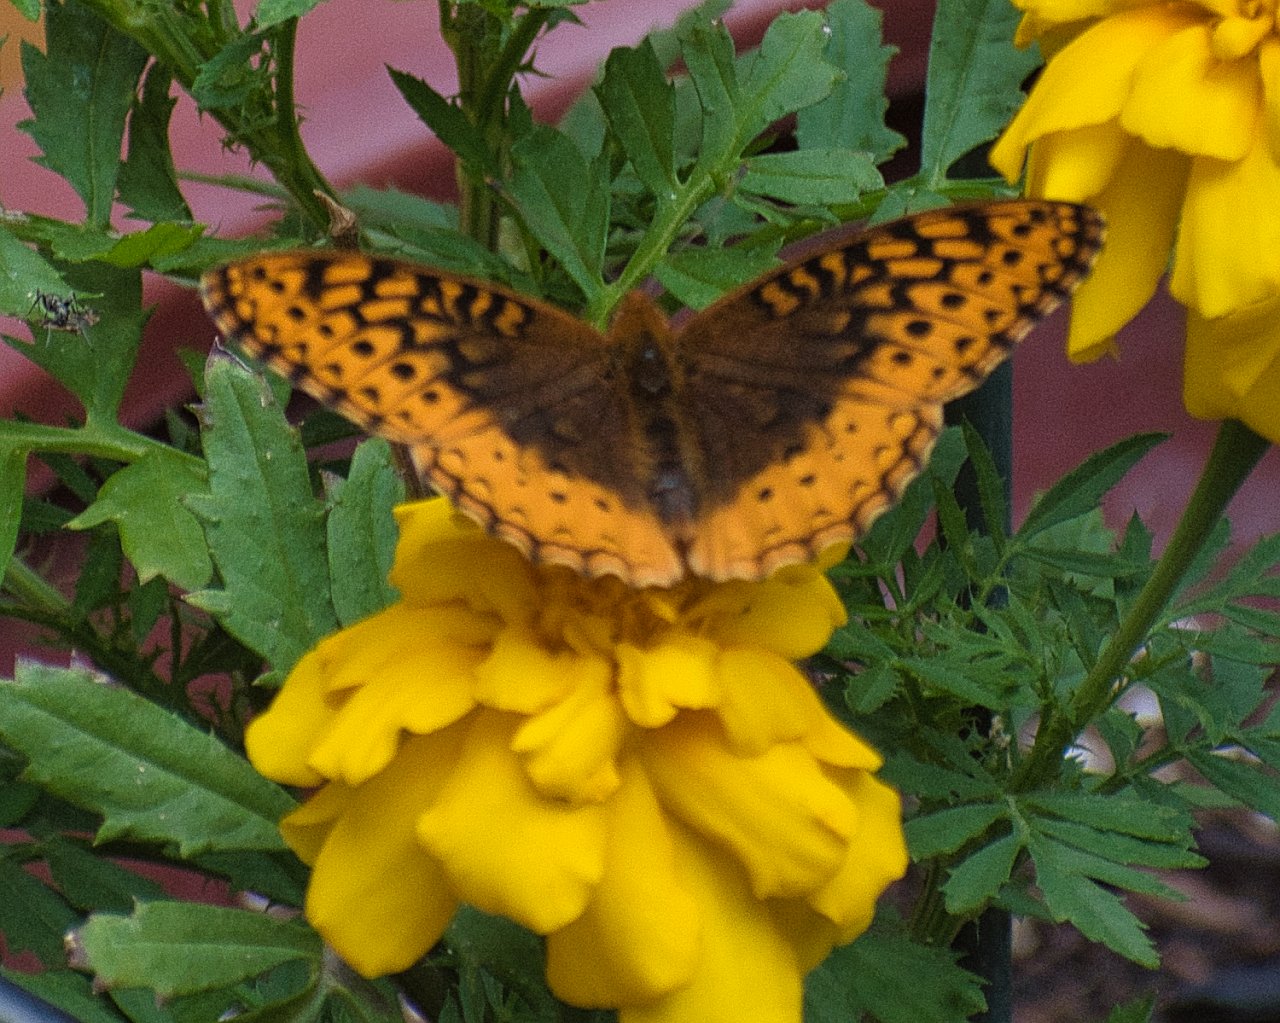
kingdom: Animalia
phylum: Arthropoda
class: Insecta
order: Lepidoptera
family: Nymphalidae
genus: Speyeria
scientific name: Speyeria cybele
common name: Great Spangled Fritillary
